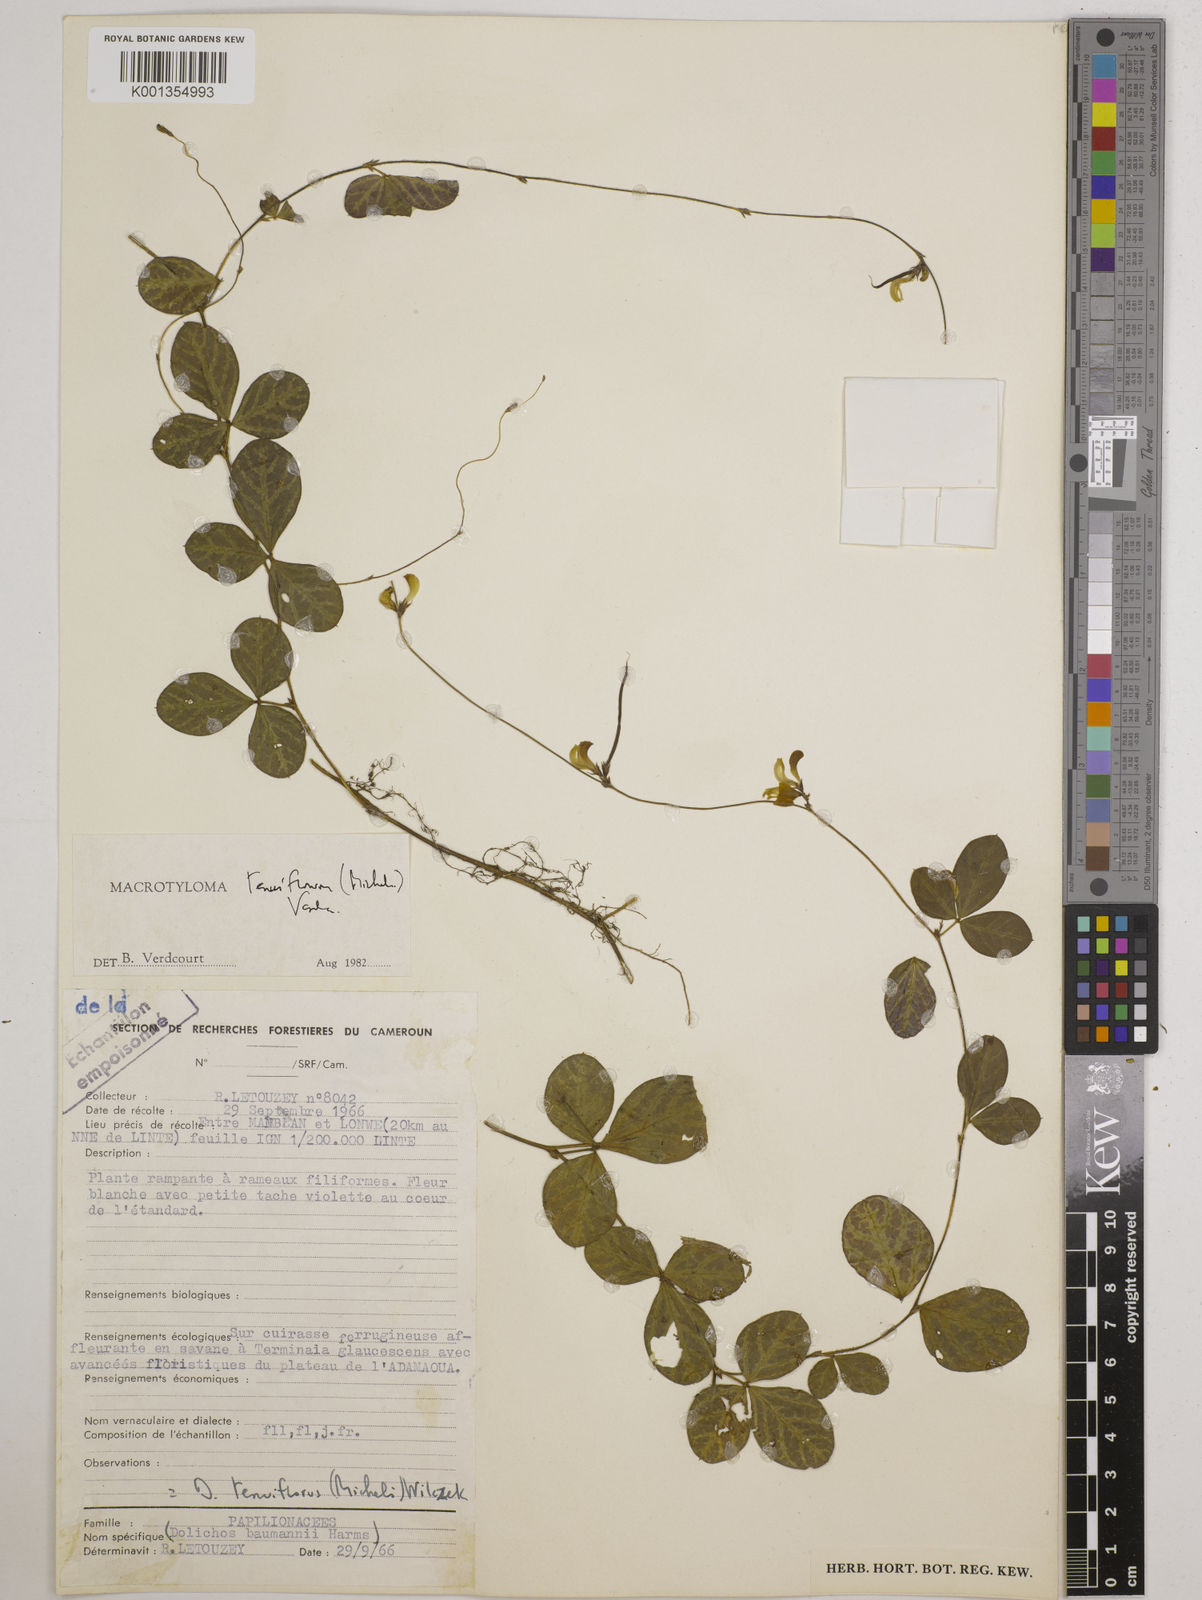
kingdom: Plantae
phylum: Tracheophyta
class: Magnoliopsida
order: Fabales
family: Fabaceae
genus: Macrotyloma
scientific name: Macrotyloma tenuiflorum
